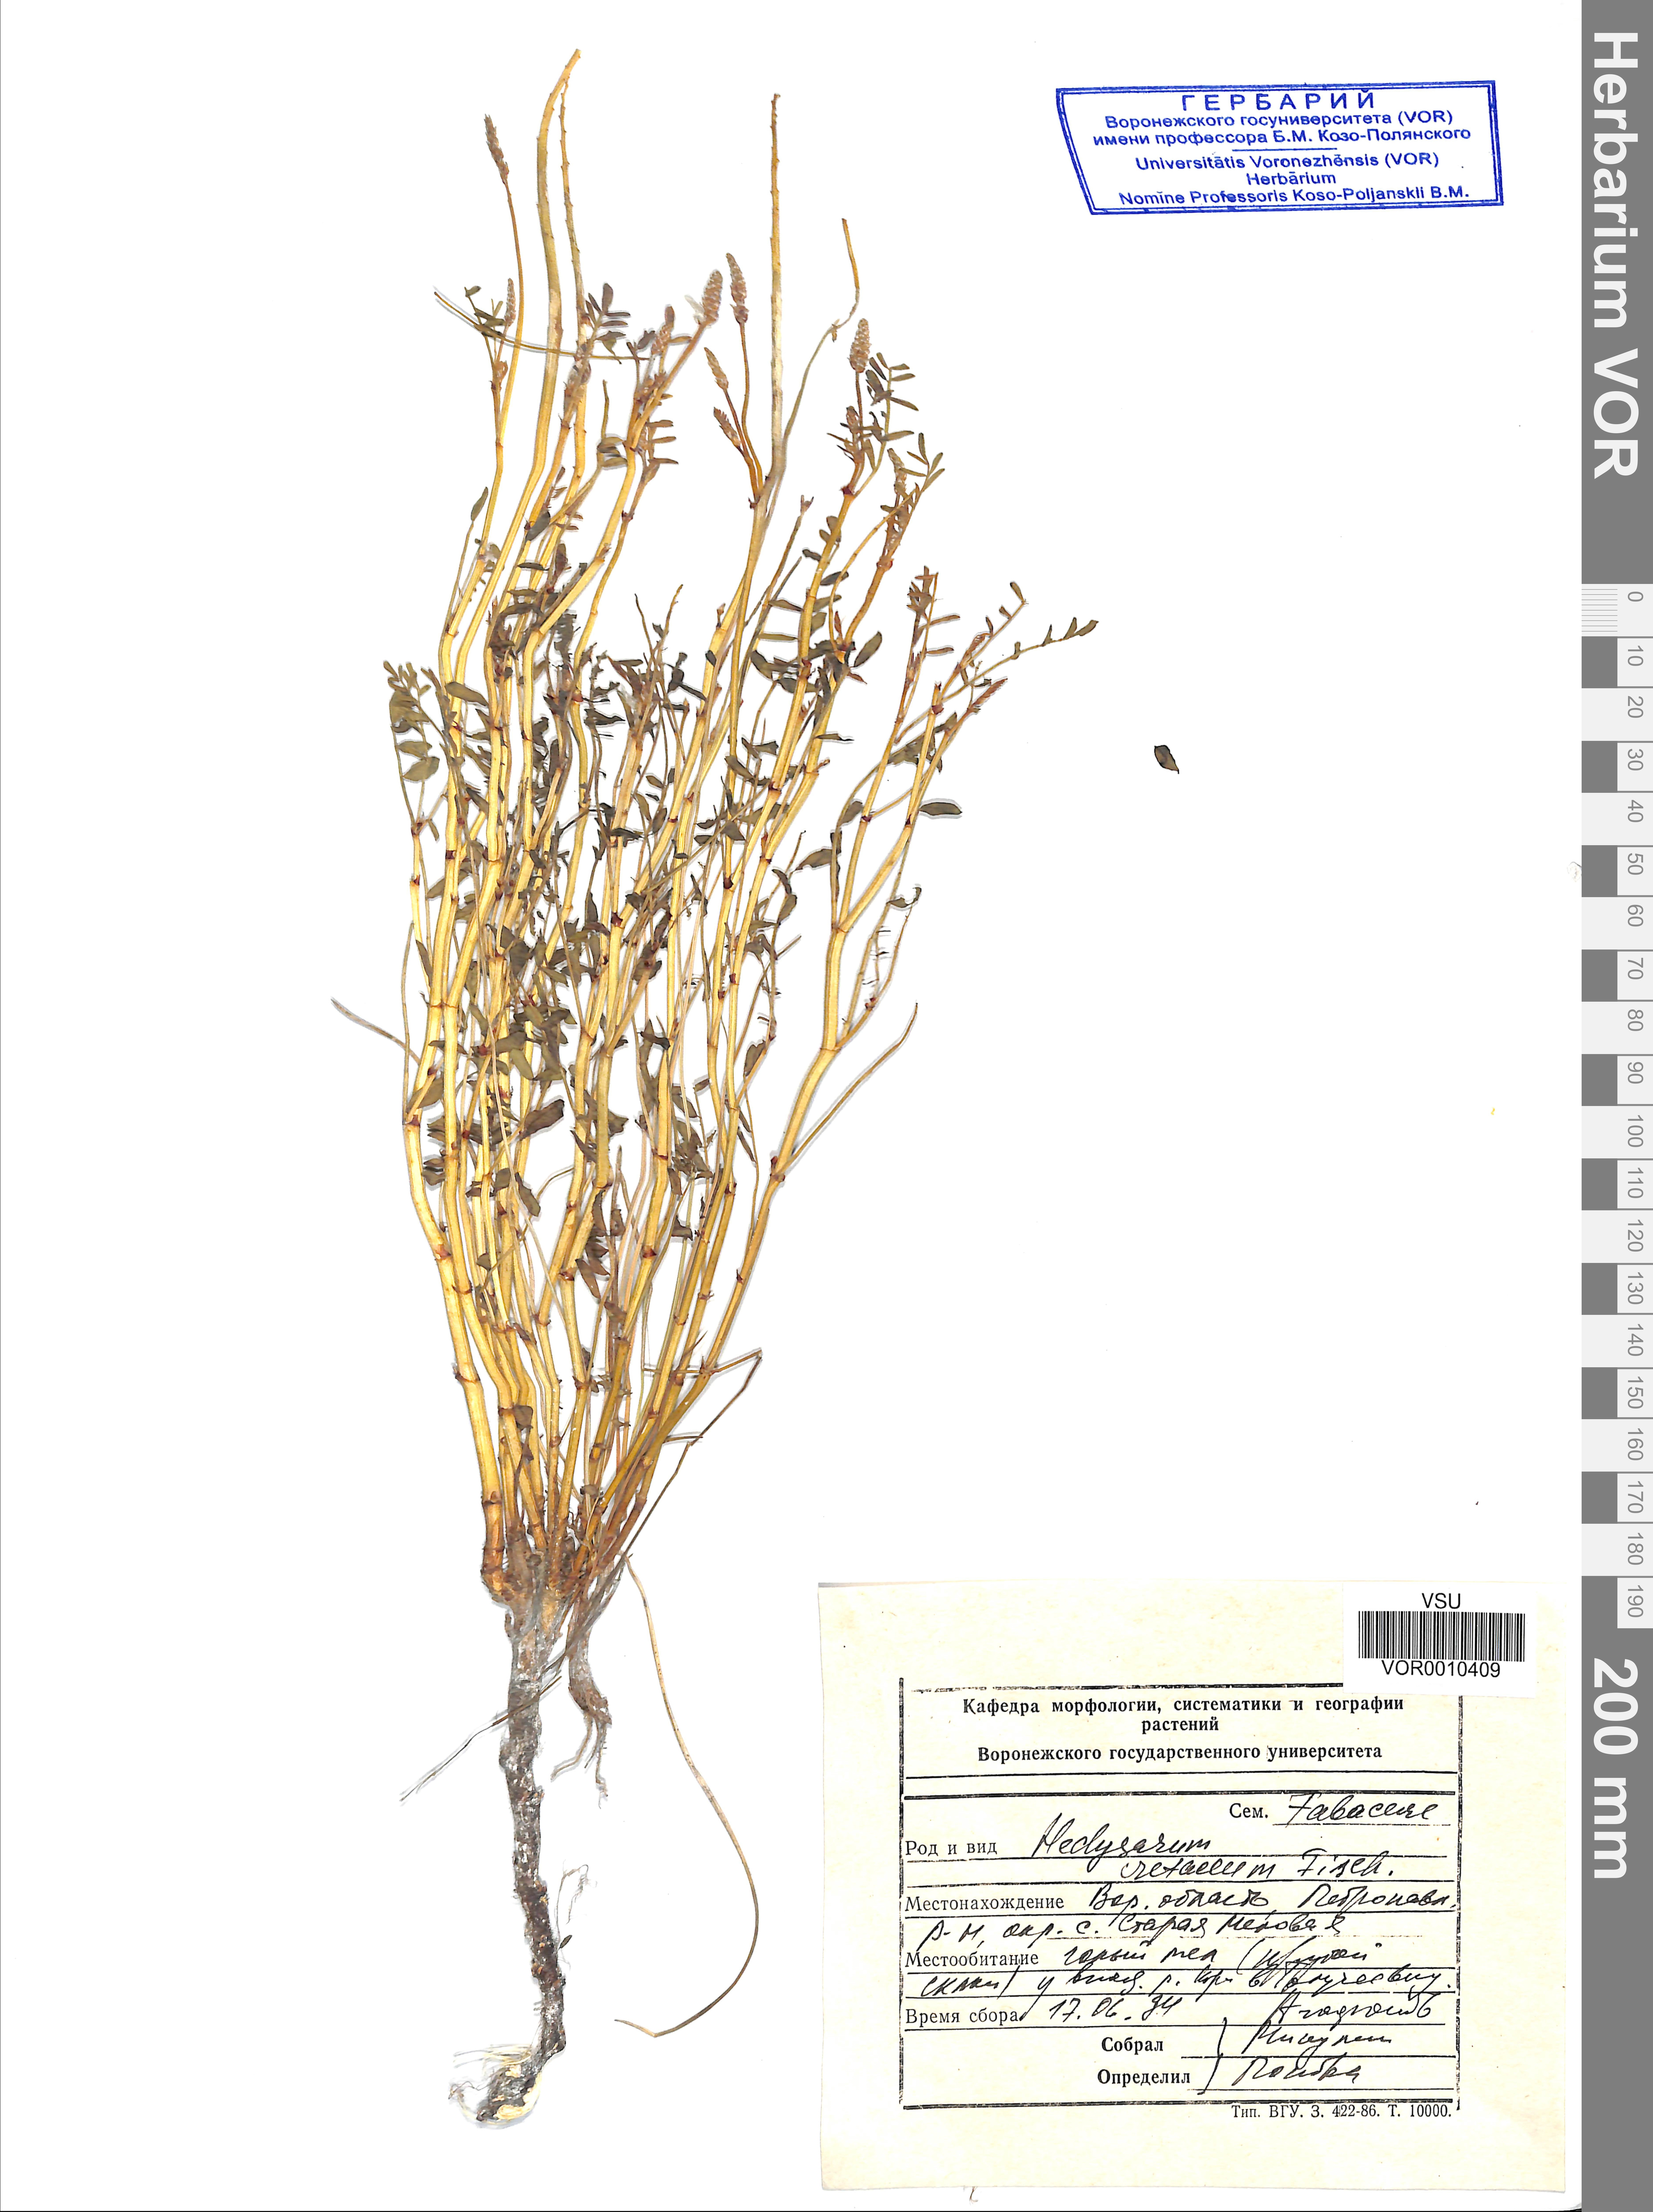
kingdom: Plantae
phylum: Tracheophyta
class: Magnoliopsida
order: Fabales
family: Fabaceae
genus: Hedysarum
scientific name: Hedysarum cretaceum
